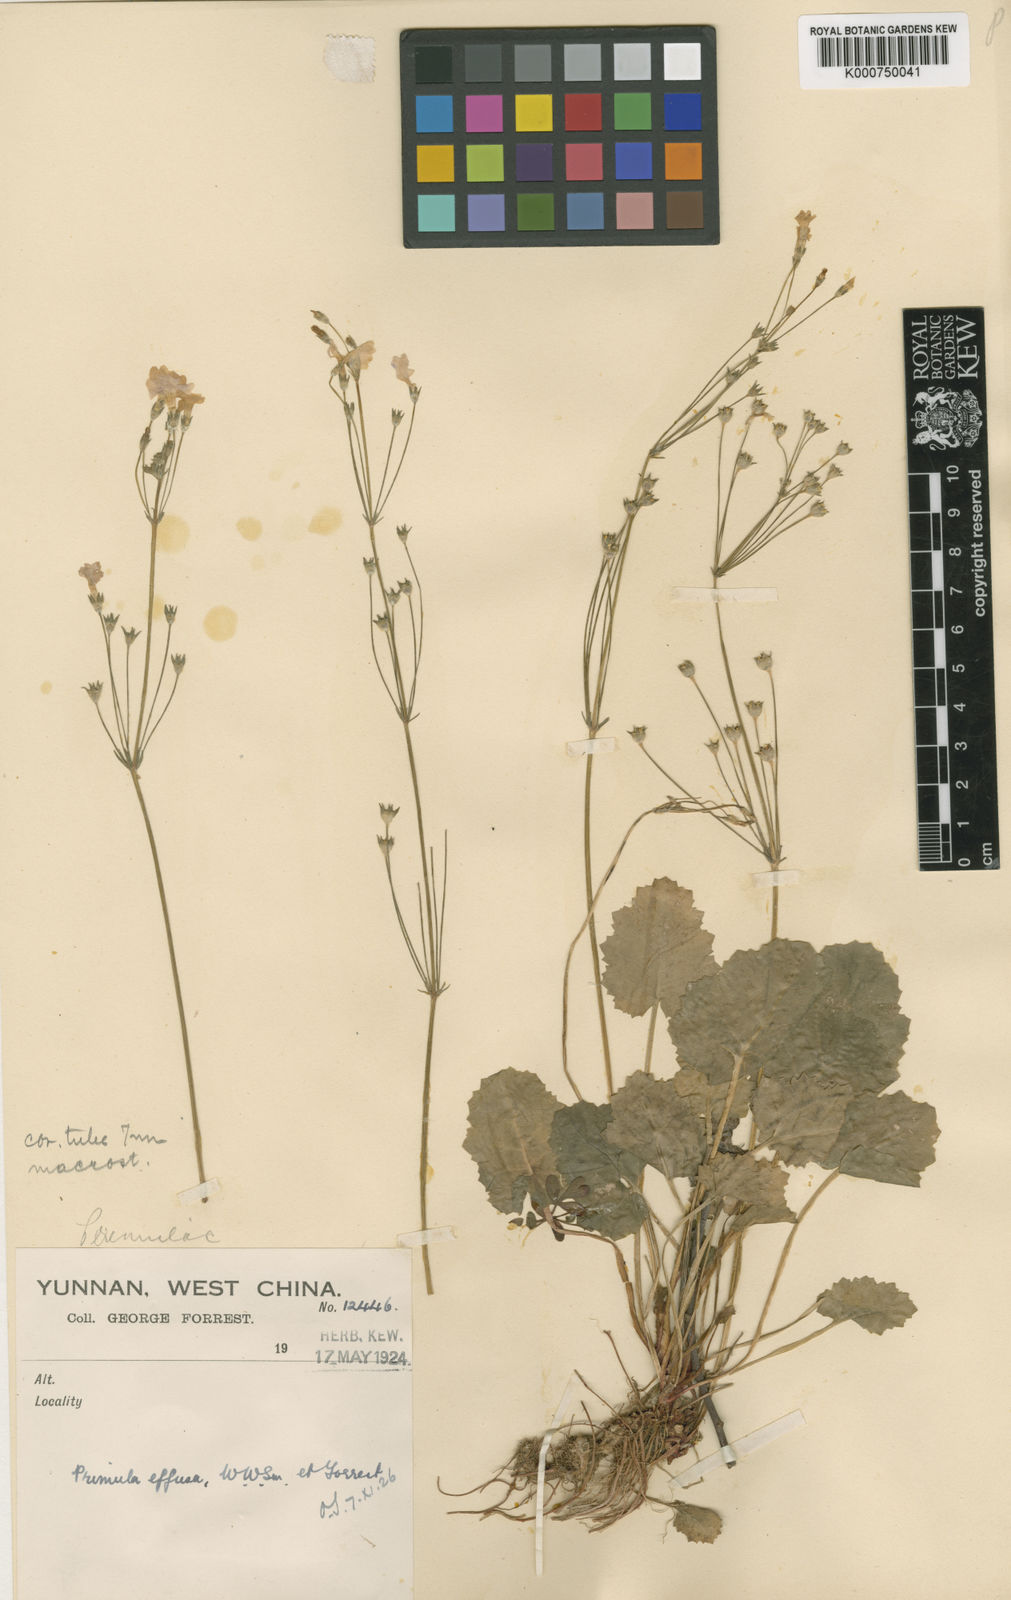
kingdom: Plantae
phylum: Tracheophyta
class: Magnoliopsida
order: Ericales
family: Primulaceae
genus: Primula
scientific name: Primula effusa
